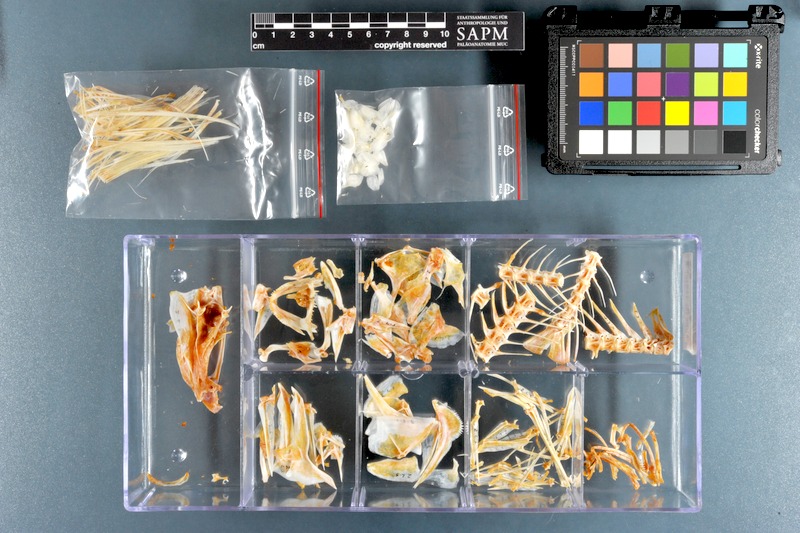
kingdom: Animalia
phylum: Chordata
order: Perciformes
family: Lutjanidae
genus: Lutjanus
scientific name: Lutjanus sebae
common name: Emperor red snapper
